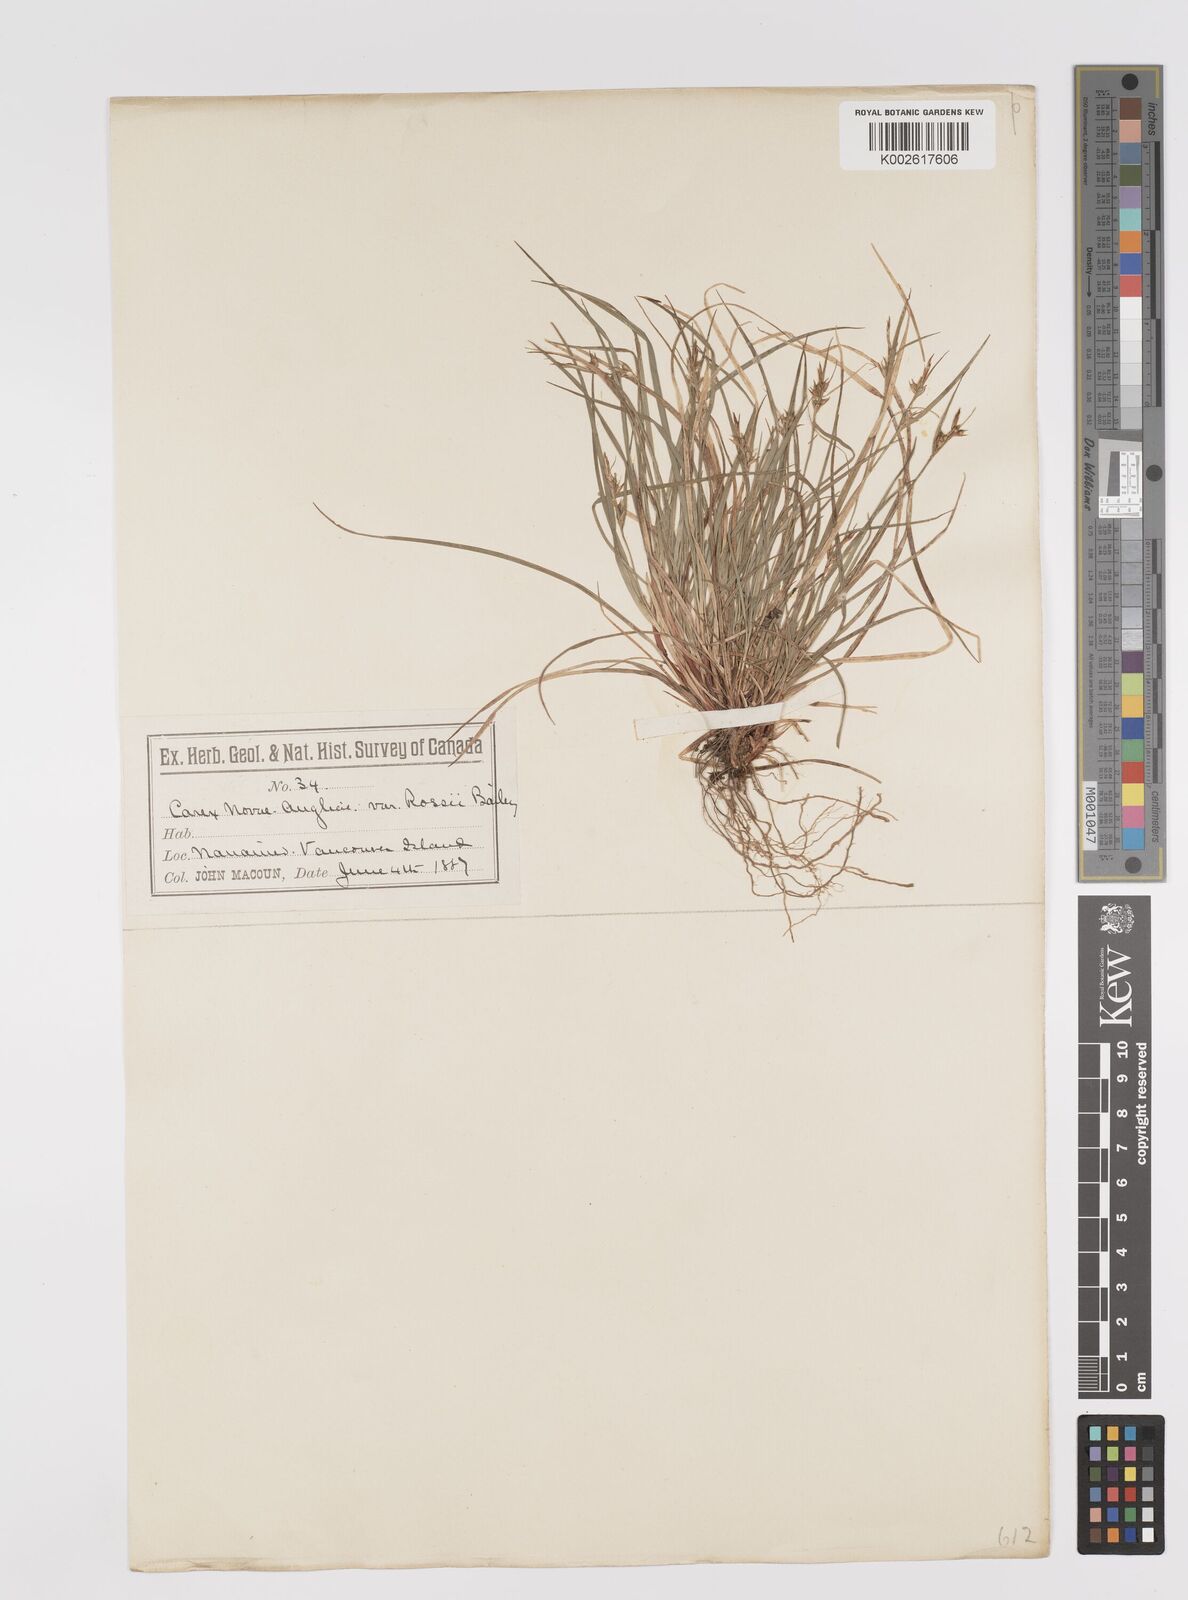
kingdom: Plantae
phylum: Tracheophyta
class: Liliopsida
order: Poales
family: Cyperaceae
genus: Carex
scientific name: Carex rossii
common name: Ross' sedge
